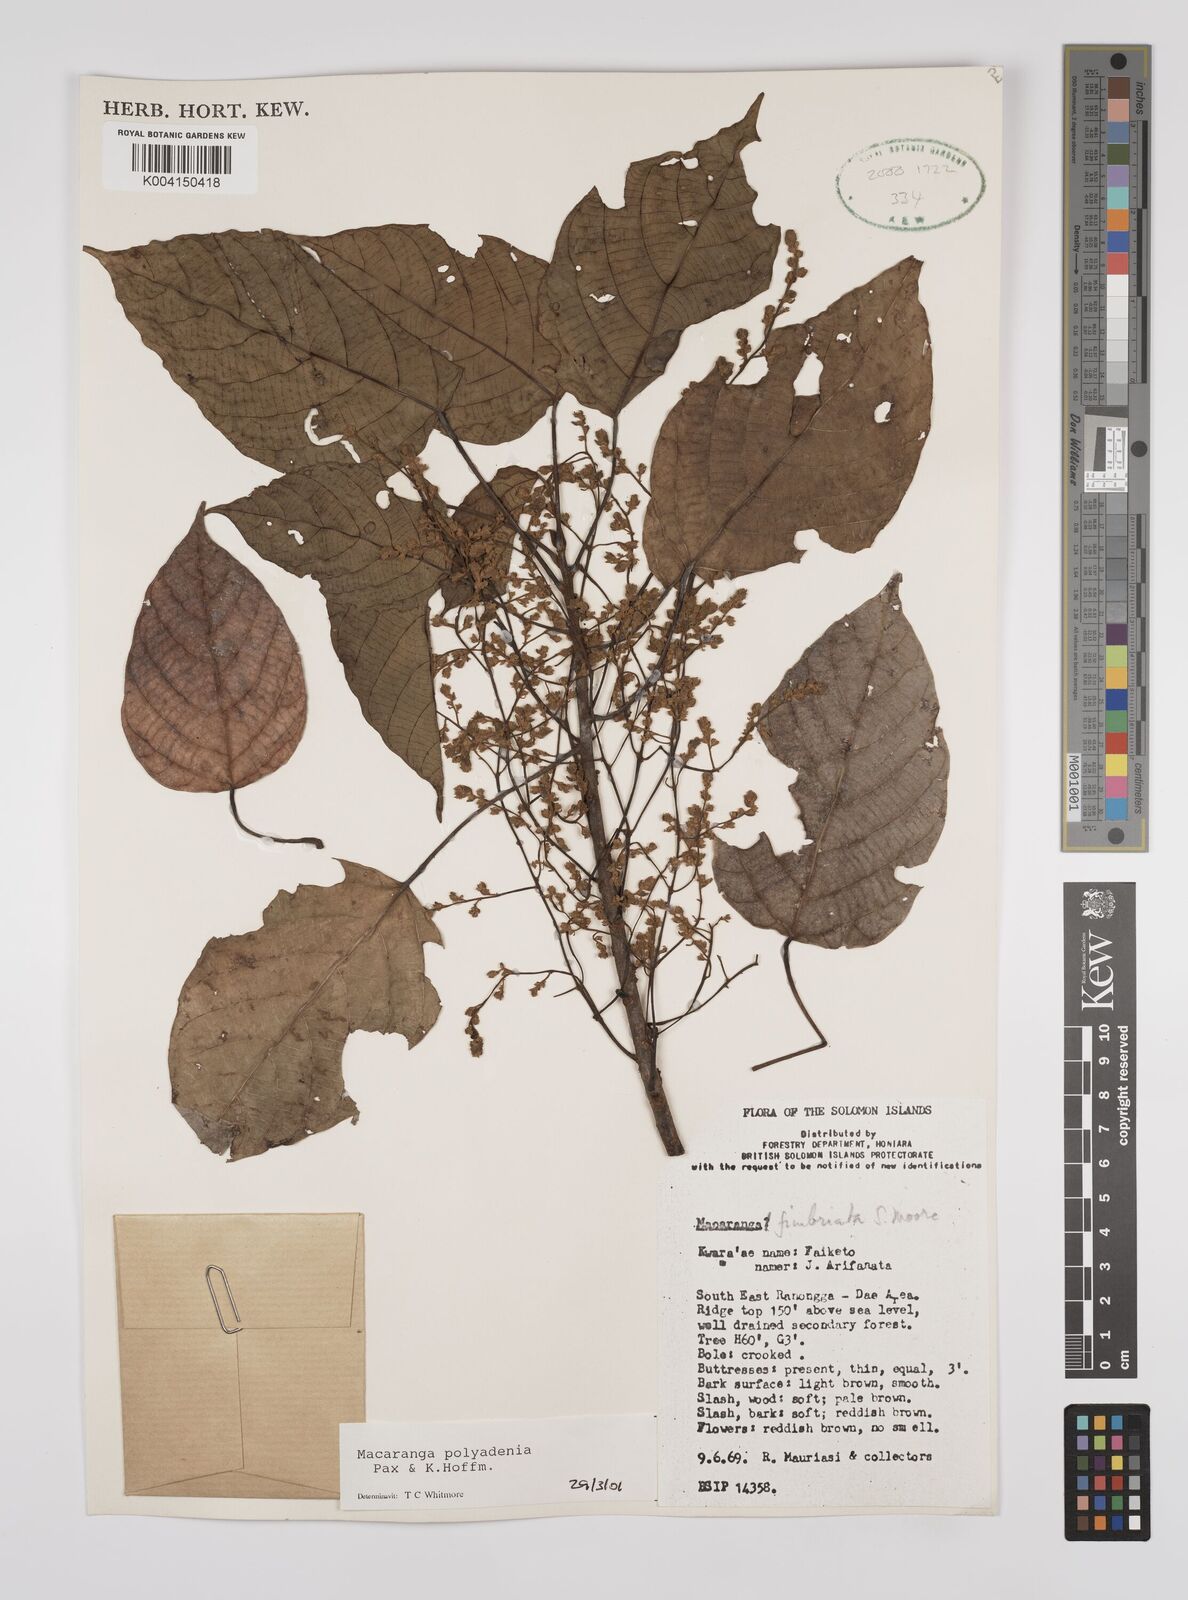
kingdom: Plantae
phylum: Tracheophyta
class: Magnoliopsida
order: Malpighiales
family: Euphorbiaceae
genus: Macaranga
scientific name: Macaranga polyadenia
